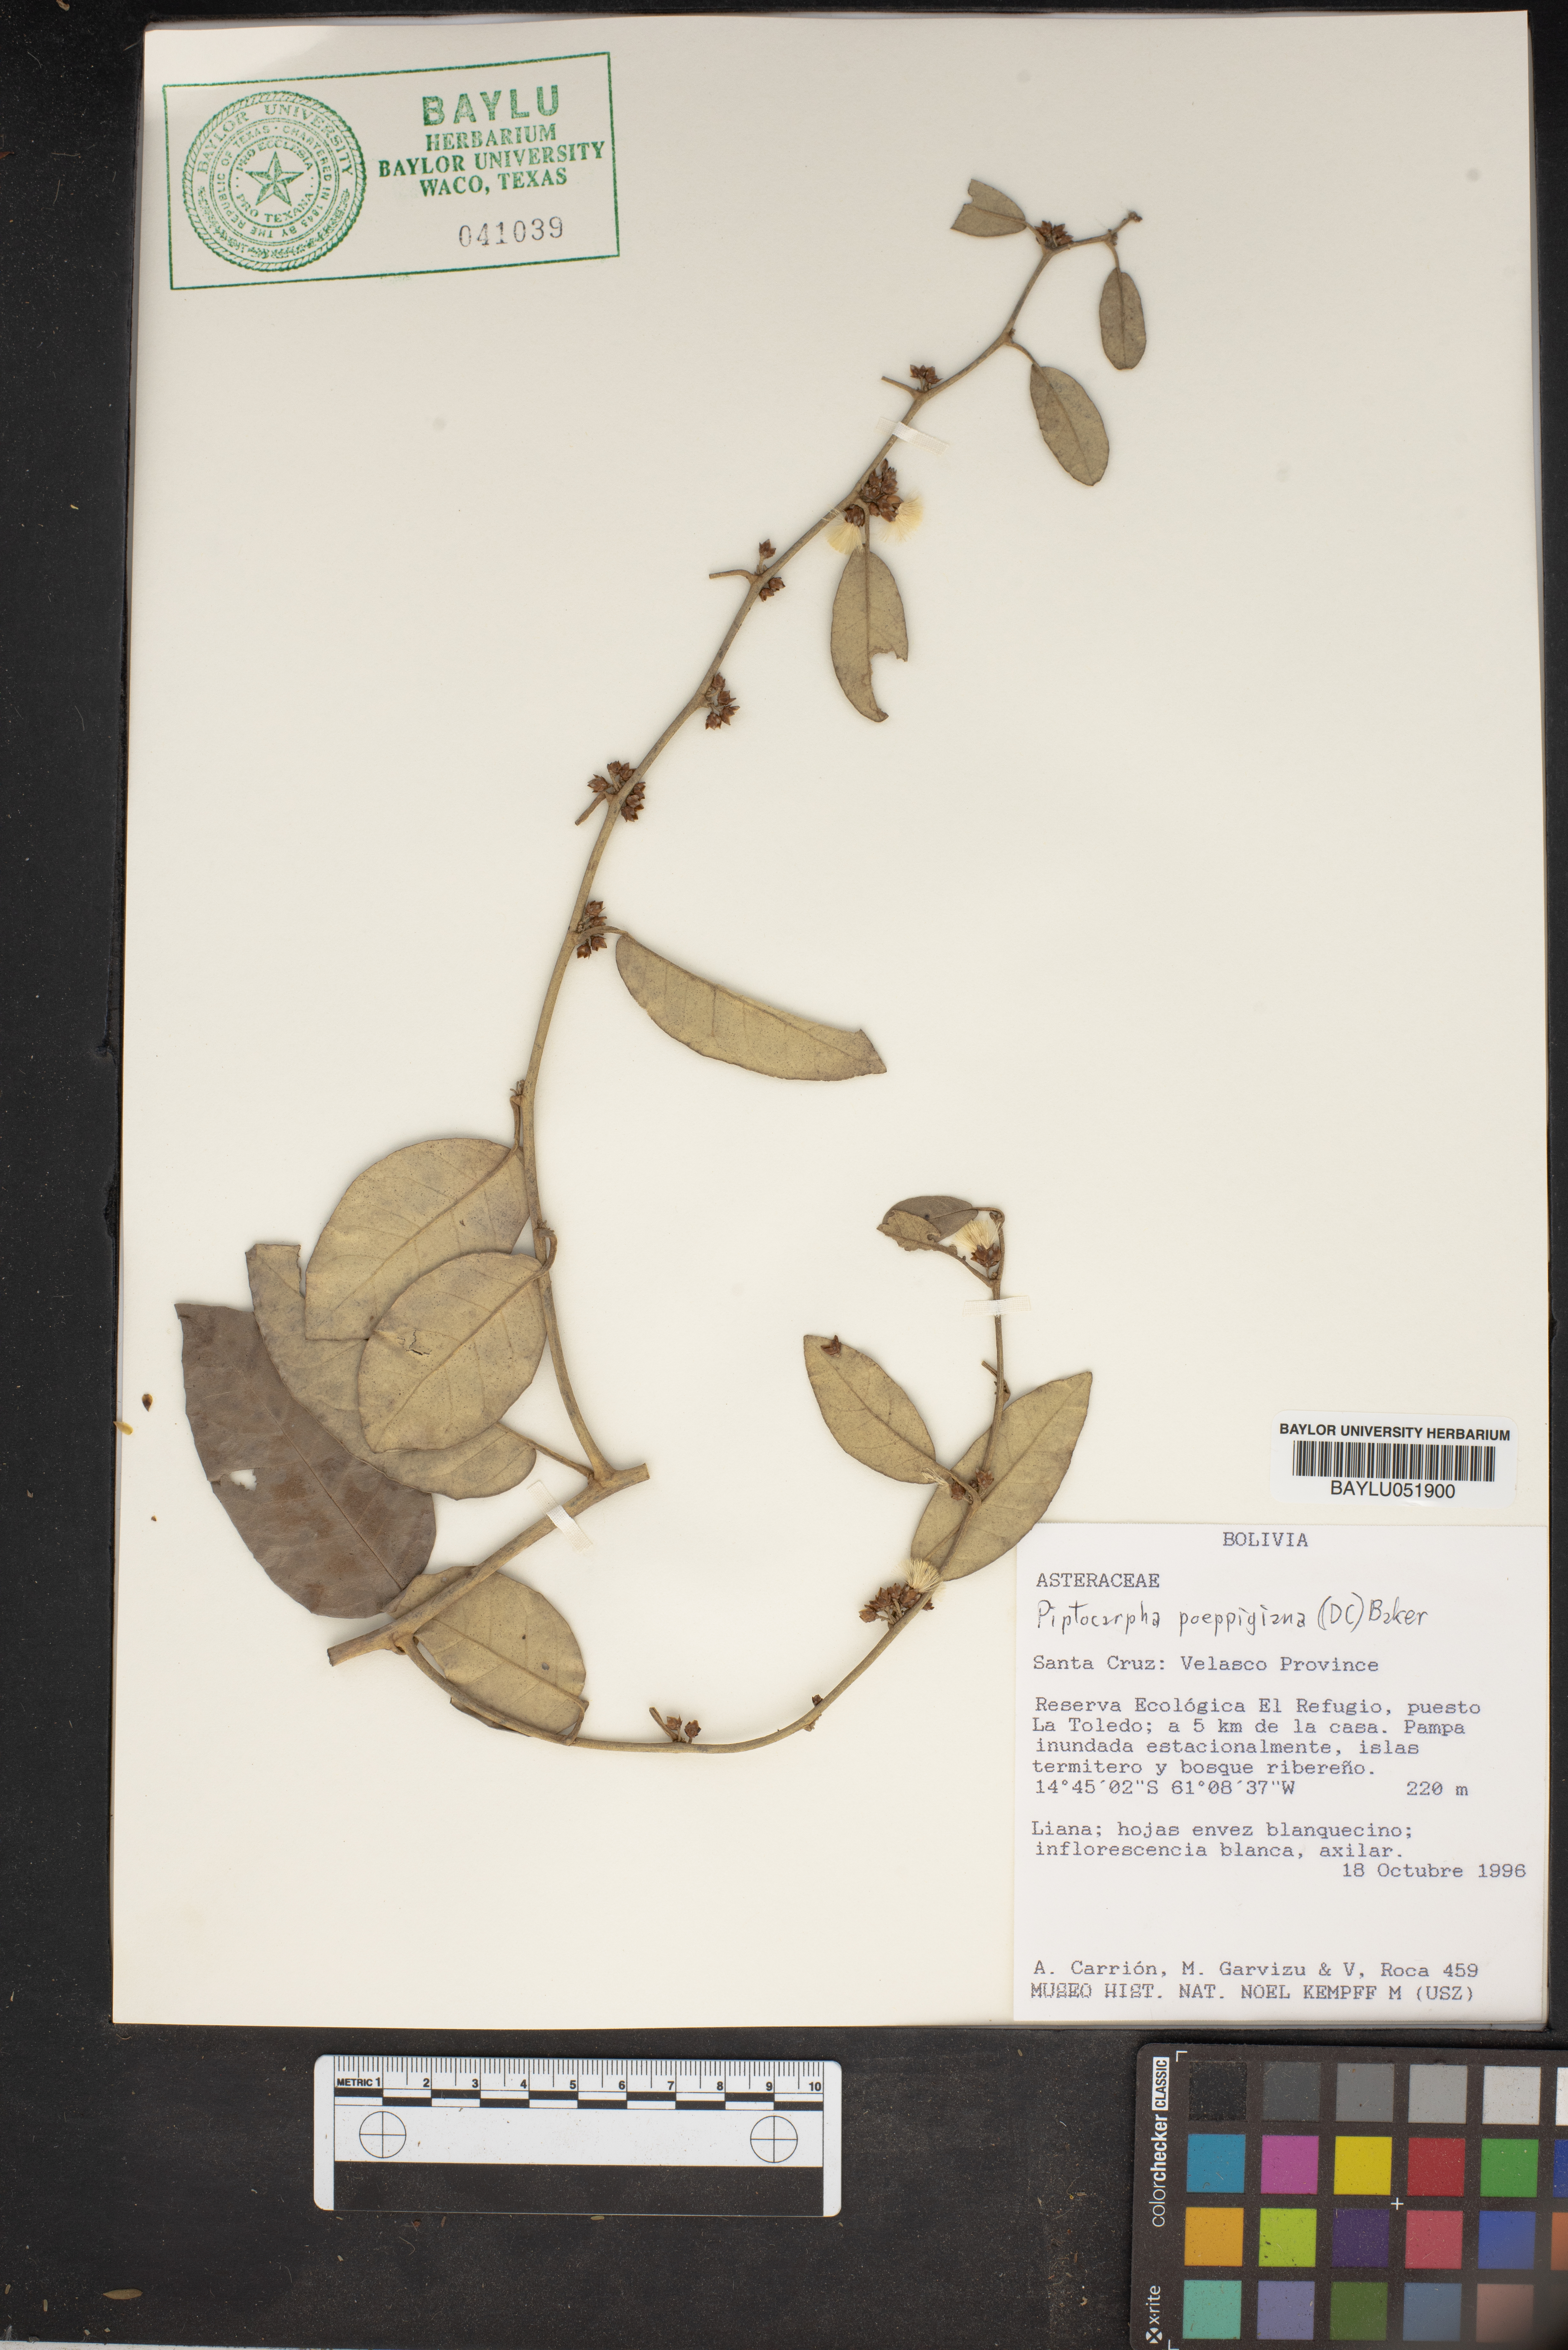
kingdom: Plantae
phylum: Tracheophyta
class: Magnoliopsida
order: Asterales
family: Asteraceae
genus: Piptocarpha
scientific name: Piptocarpha poeppigiana
